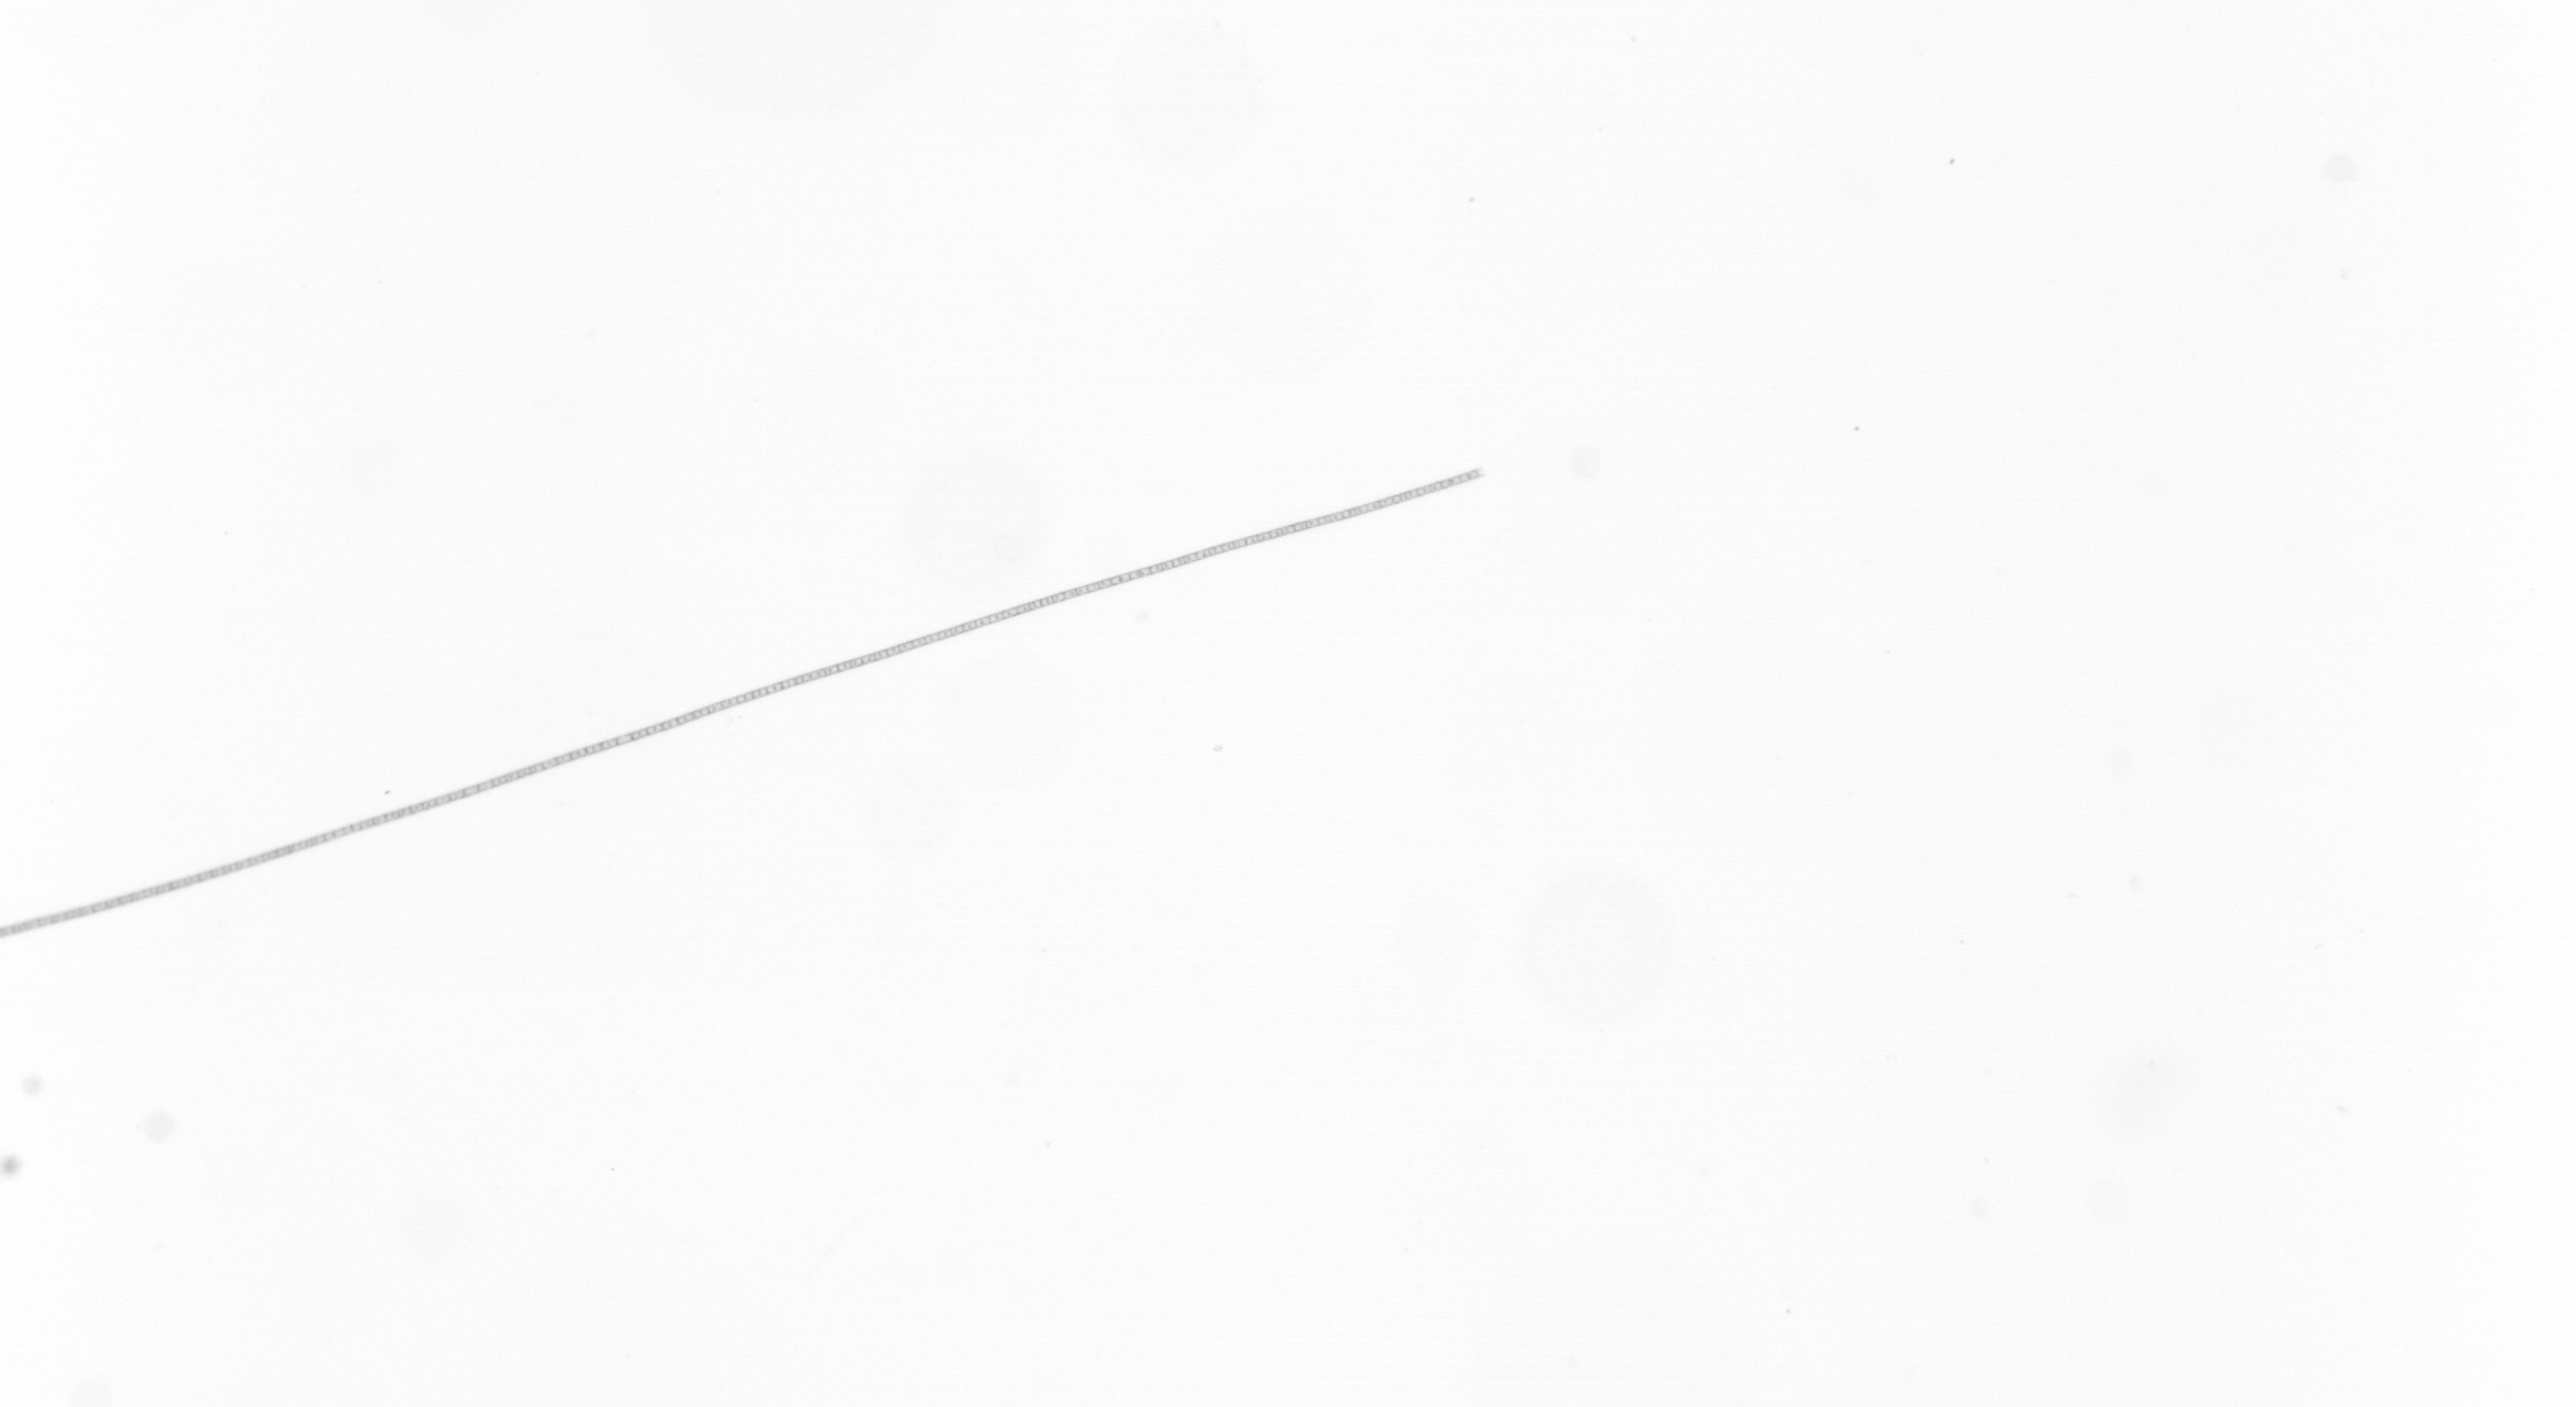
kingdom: Chromista
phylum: Ochrophyta
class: Bacillariophyceae
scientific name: Bacillariophyceae
